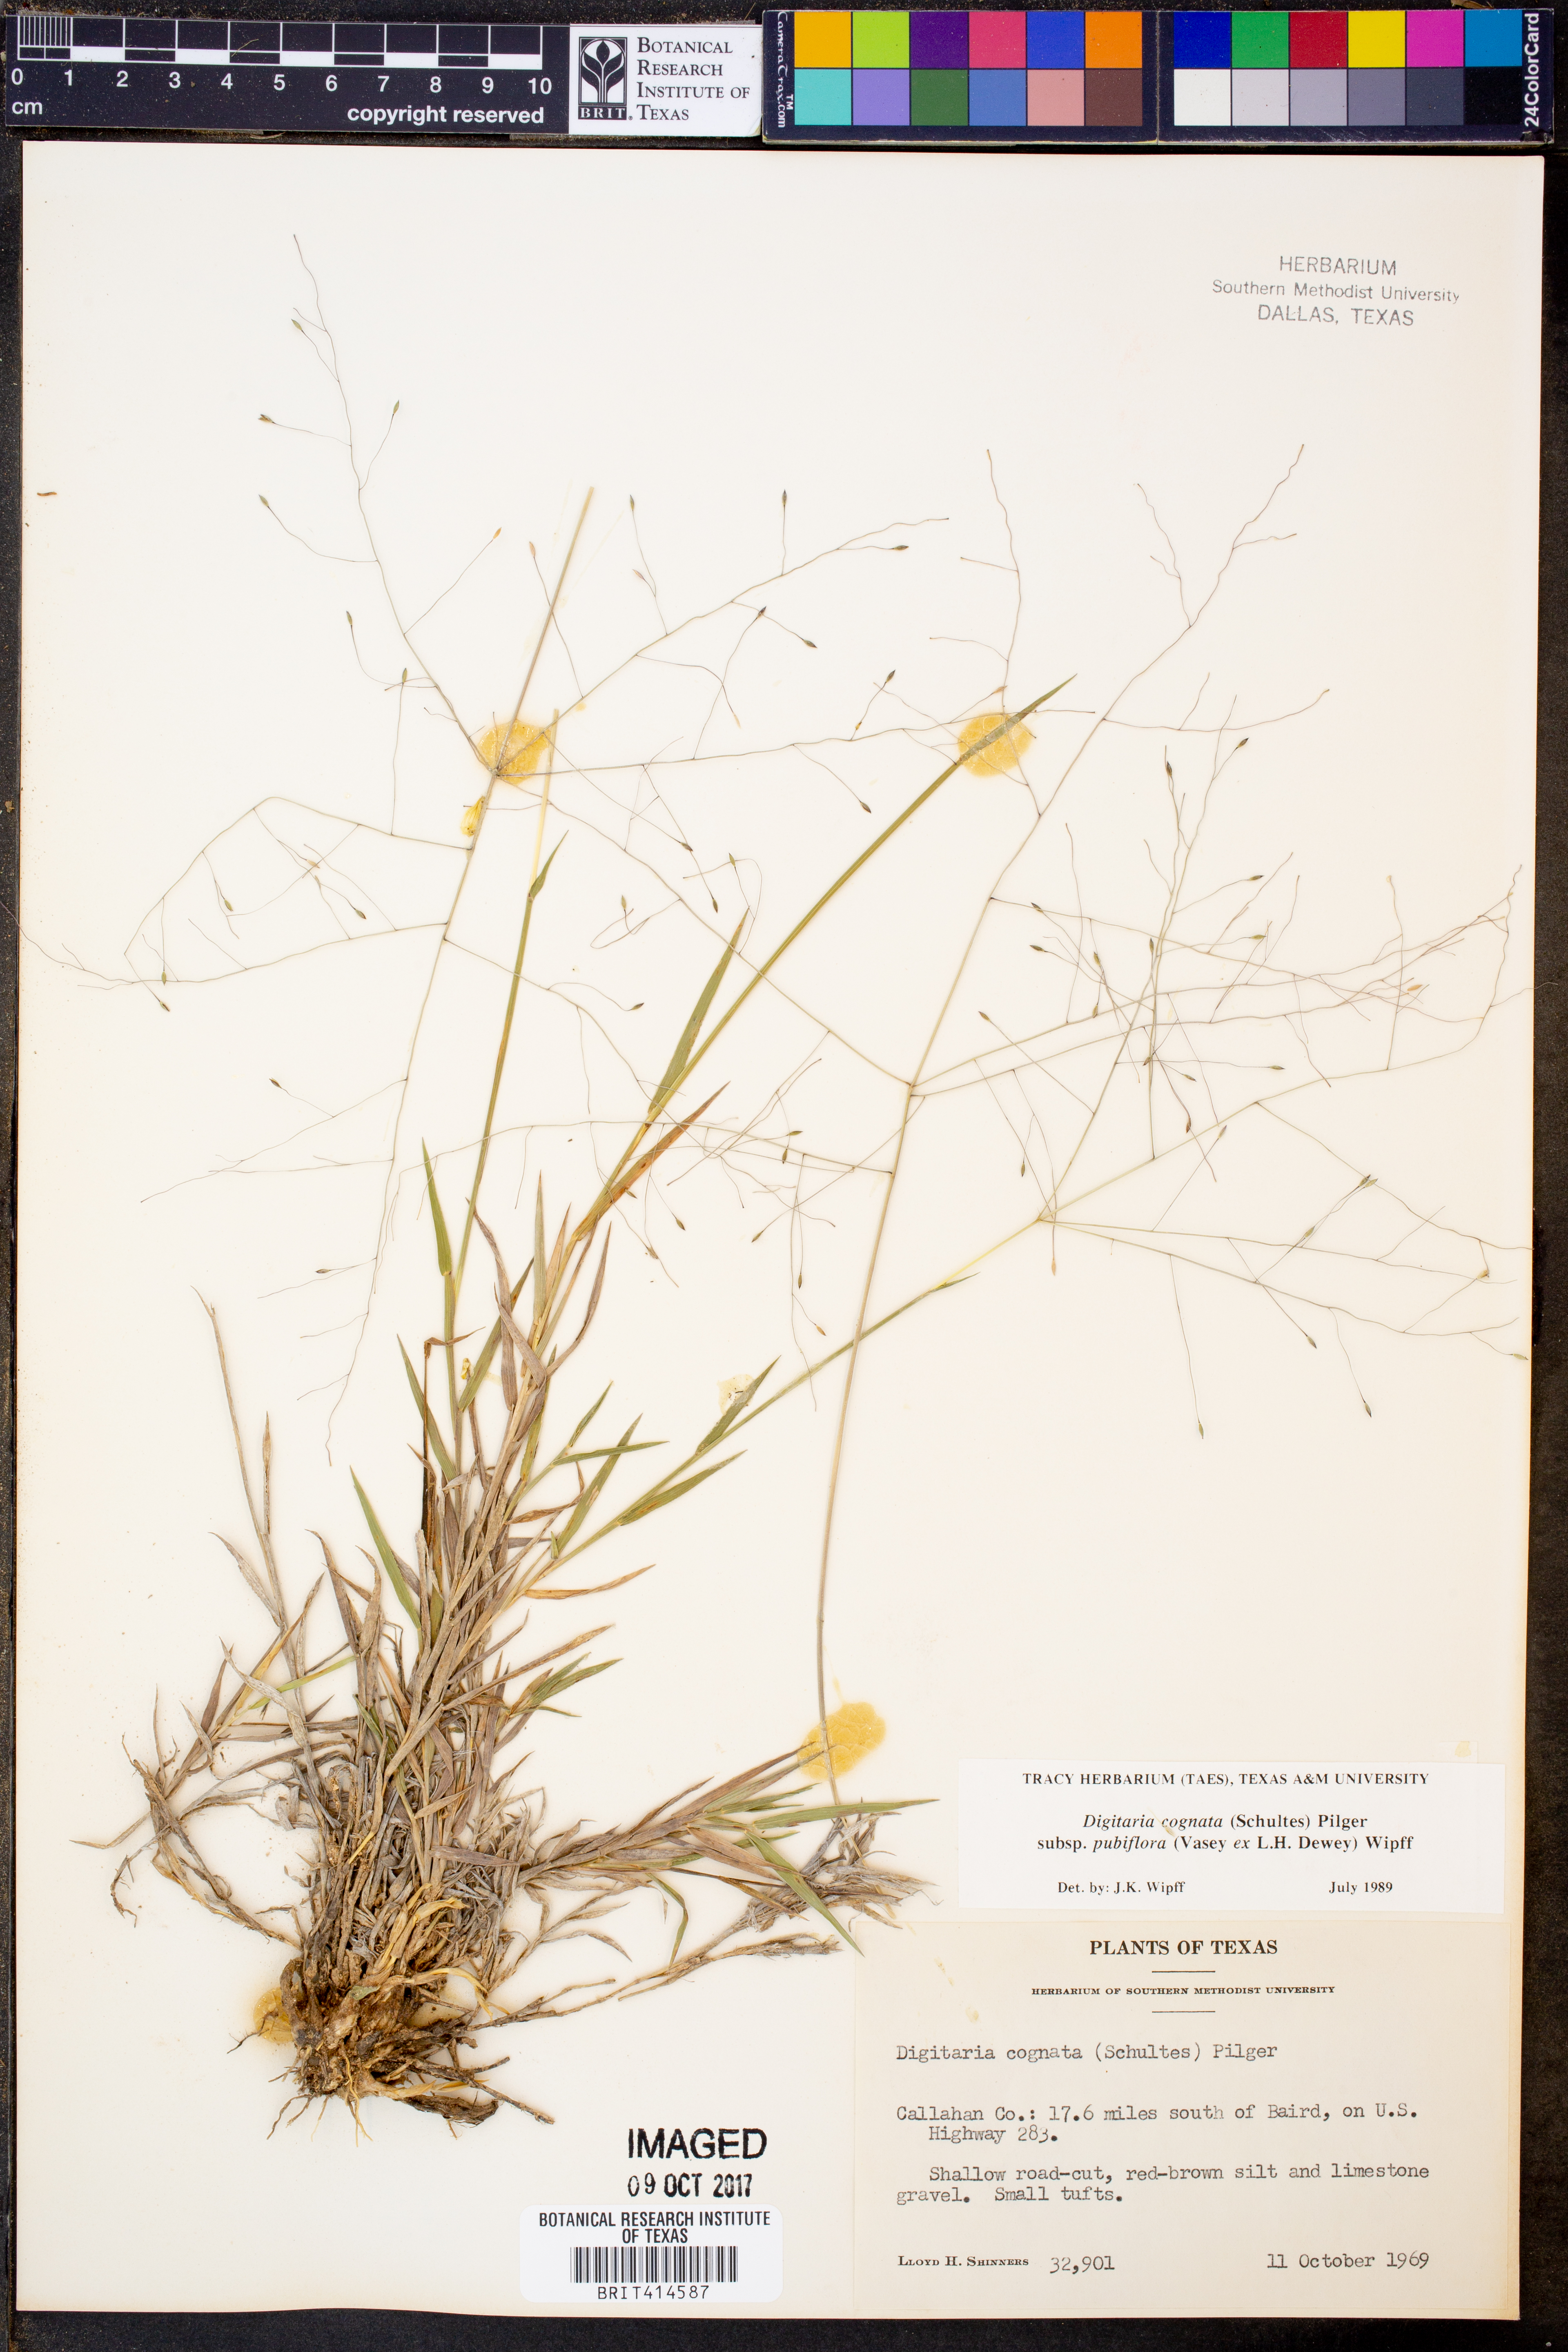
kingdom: Plantae
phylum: Tracheophyta
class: Liliopsida
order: Poales
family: Poaceae
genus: Digitaria
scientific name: Digitaria cognata
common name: Fall witchgrass
